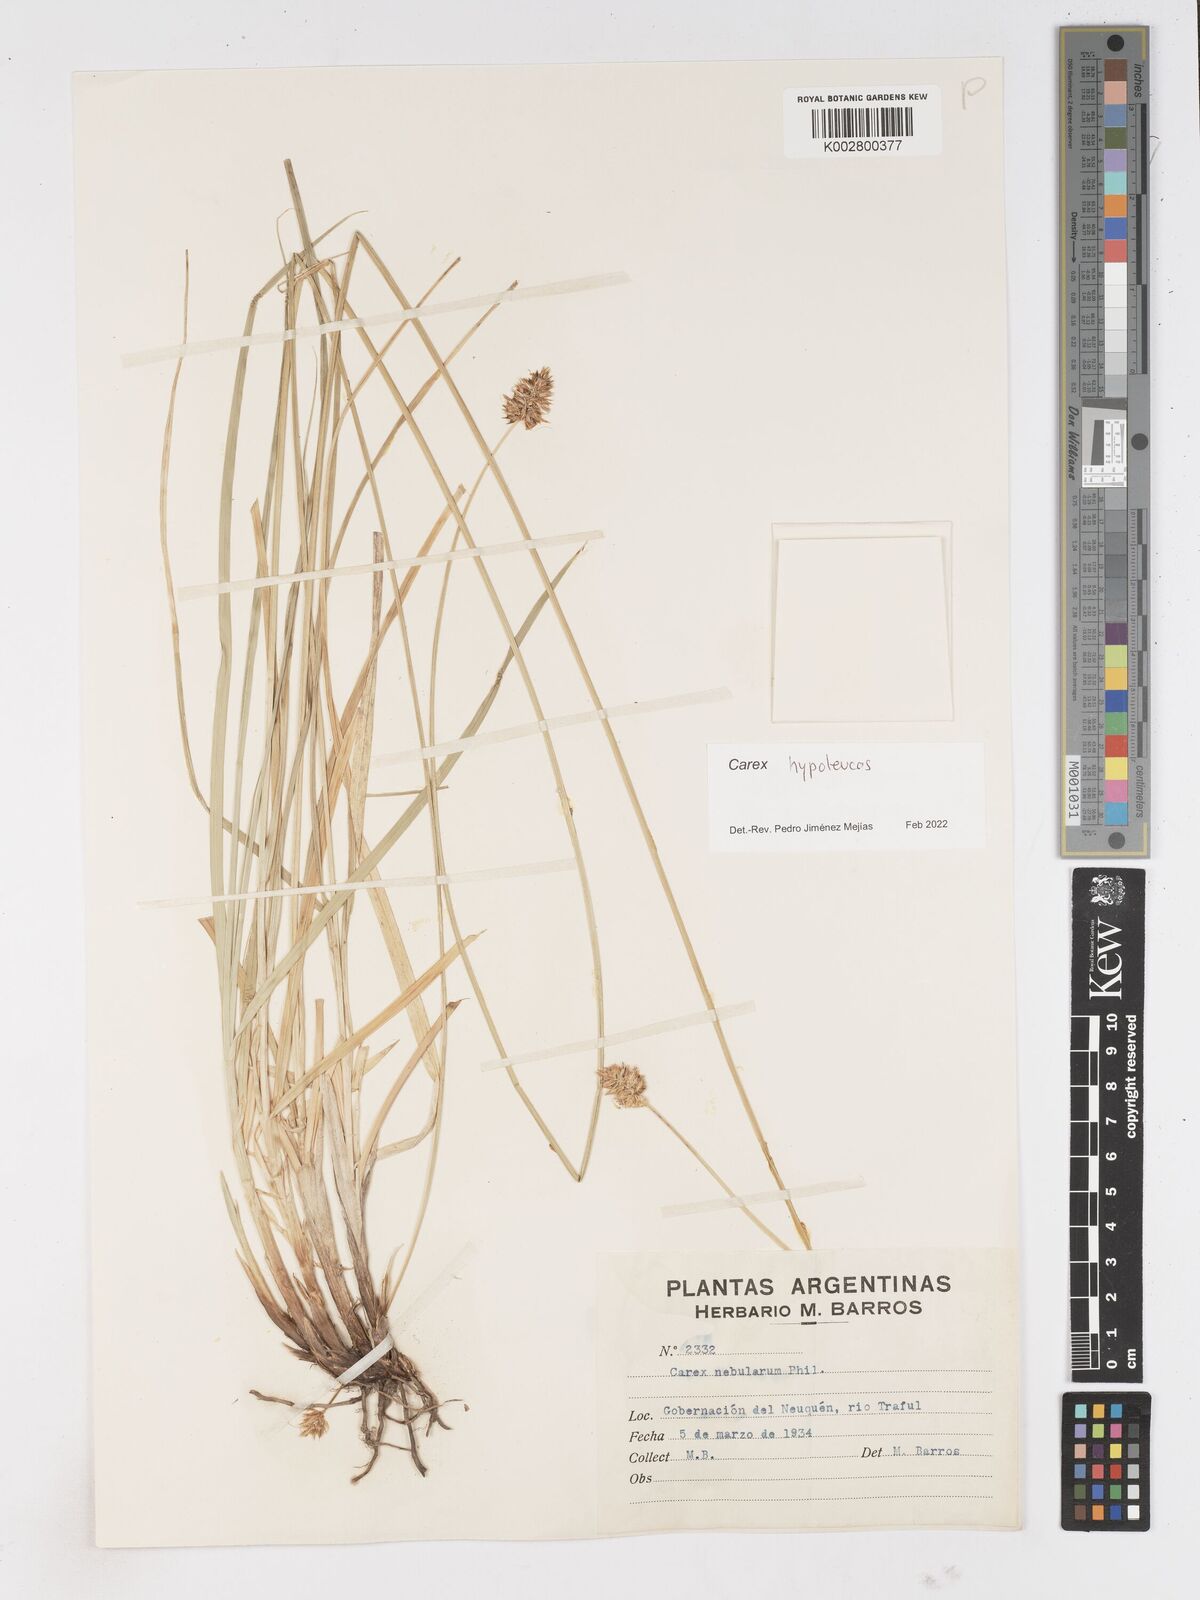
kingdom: Plantae
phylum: Tracheophyta
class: Liliopsida
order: Poales
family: Cyperaceae
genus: Carex
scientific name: Carex macrorrhiza
